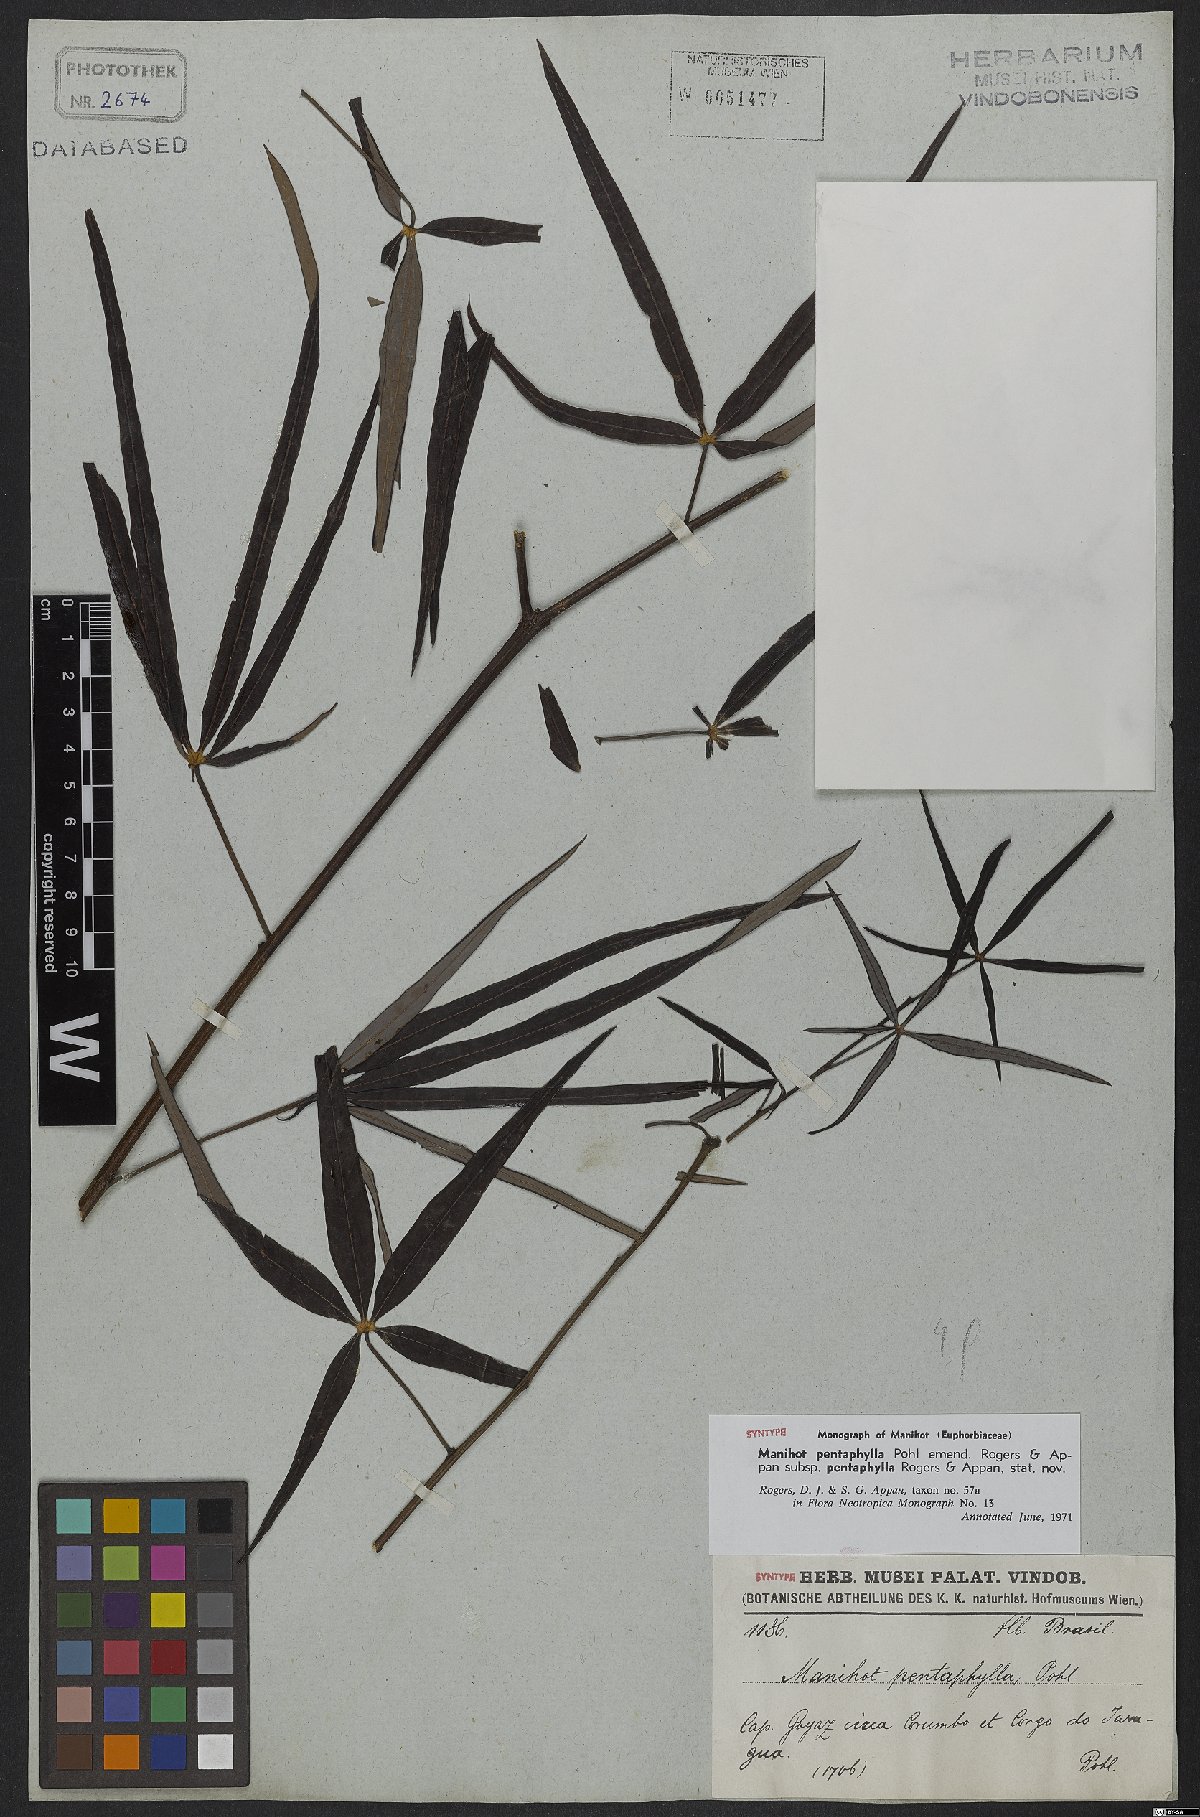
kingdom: Plantae
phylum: Tracheophyta
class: Magnoliopsida
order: Malpighiales
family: Euphorbiaceae
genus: Manihot
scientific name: Manihot pentaphylla
